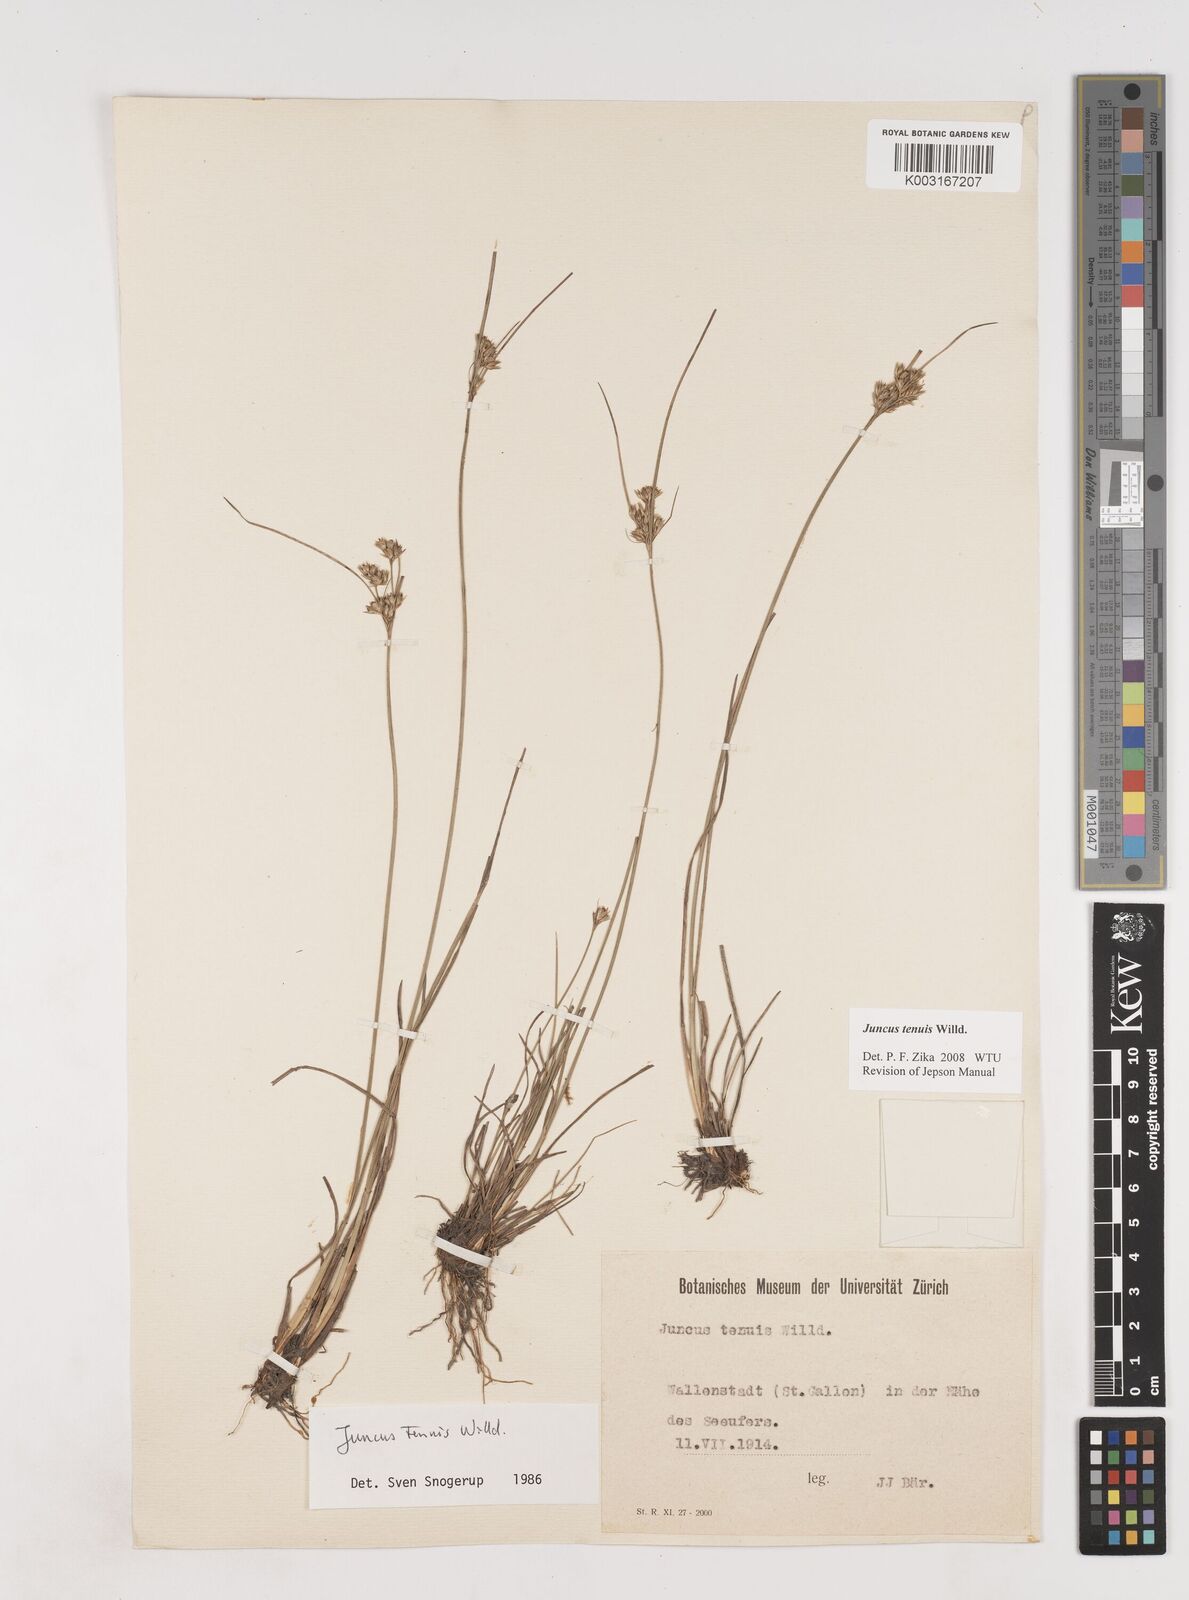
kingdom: Plantae
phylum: Tracheophyta
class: Liliopsida
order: Poales
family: Juncaceae
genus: Juncus
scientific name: Juncus tenuis
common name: Slender rush
